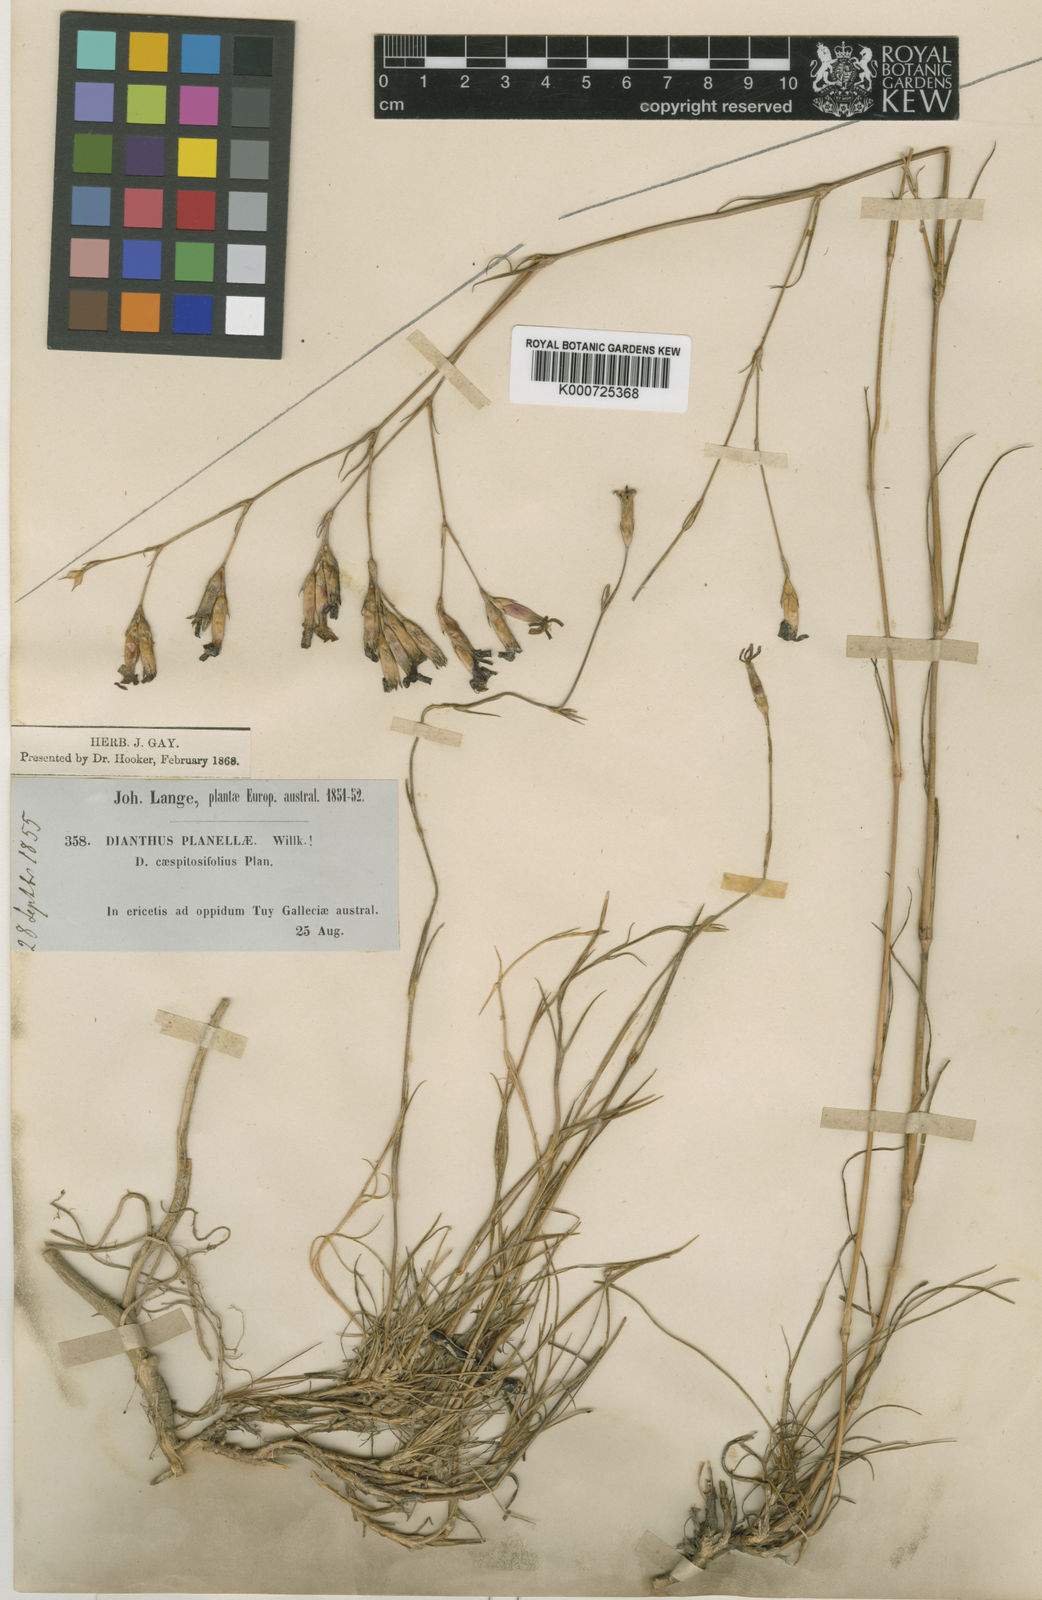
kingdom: Plantae
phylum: Tracheophyta
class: Magnoliopsida
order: Caryophyllales
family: Caryophyllaceae
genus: Dianthus
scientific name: Dianthus laricifolius
